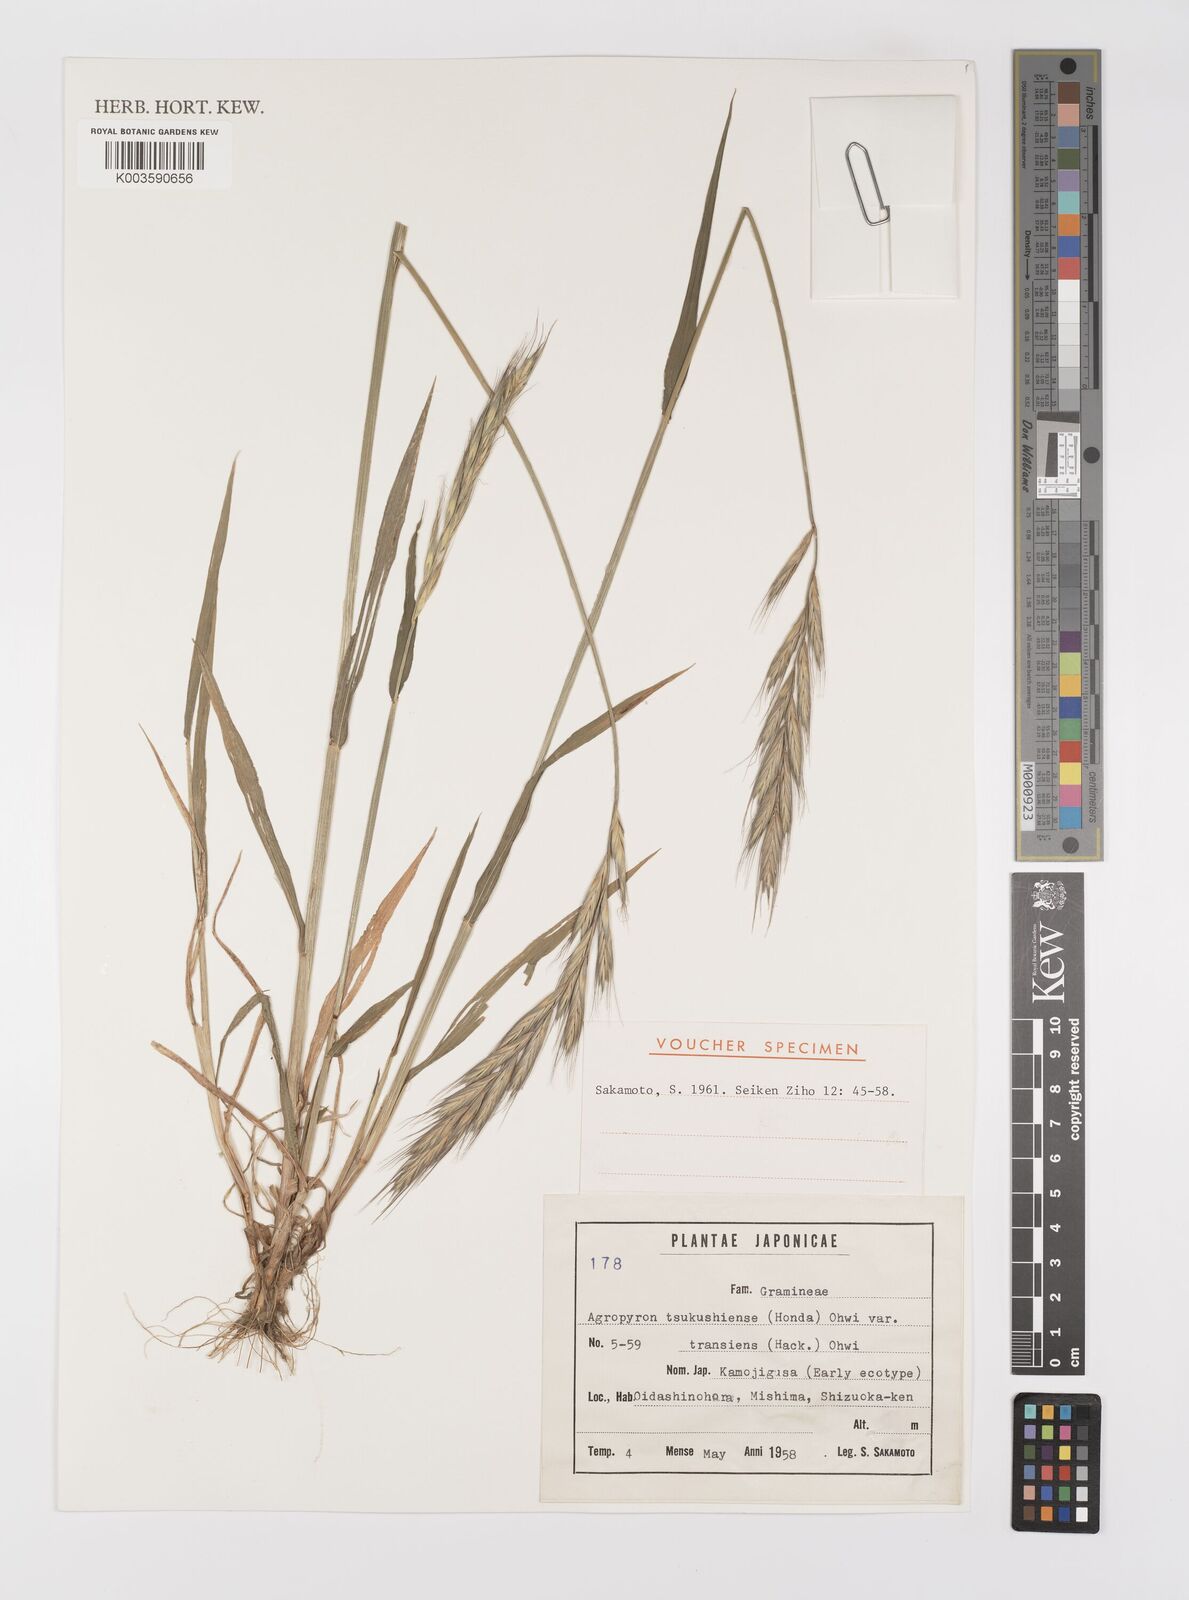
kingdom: Plantae
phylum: Tracheophyta
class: Liliopsida
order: Poales
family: Poaceae
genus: Elymus
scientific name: Elymus tsukushiensis
